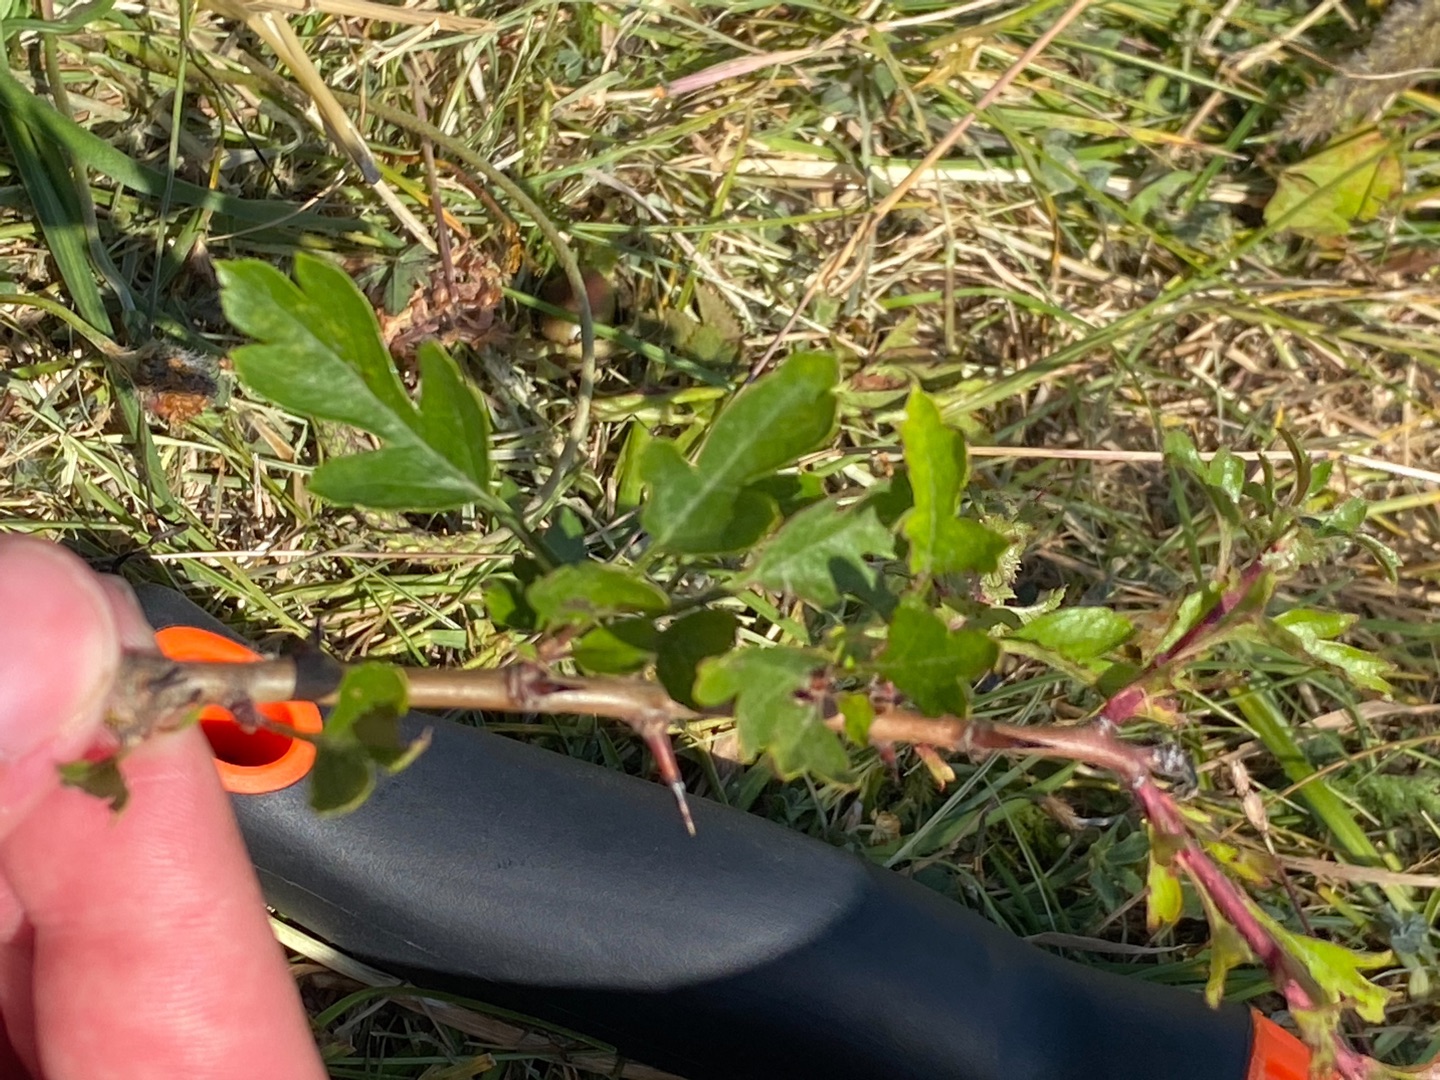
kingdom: Plantae
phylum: Tracheophyta
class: Magnoliopsida
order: Rosales
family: Rosaceae
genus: Crataegus
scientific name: Crataegus media
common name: Almindelig hvidtjørn × engriflet hvidtjørn
